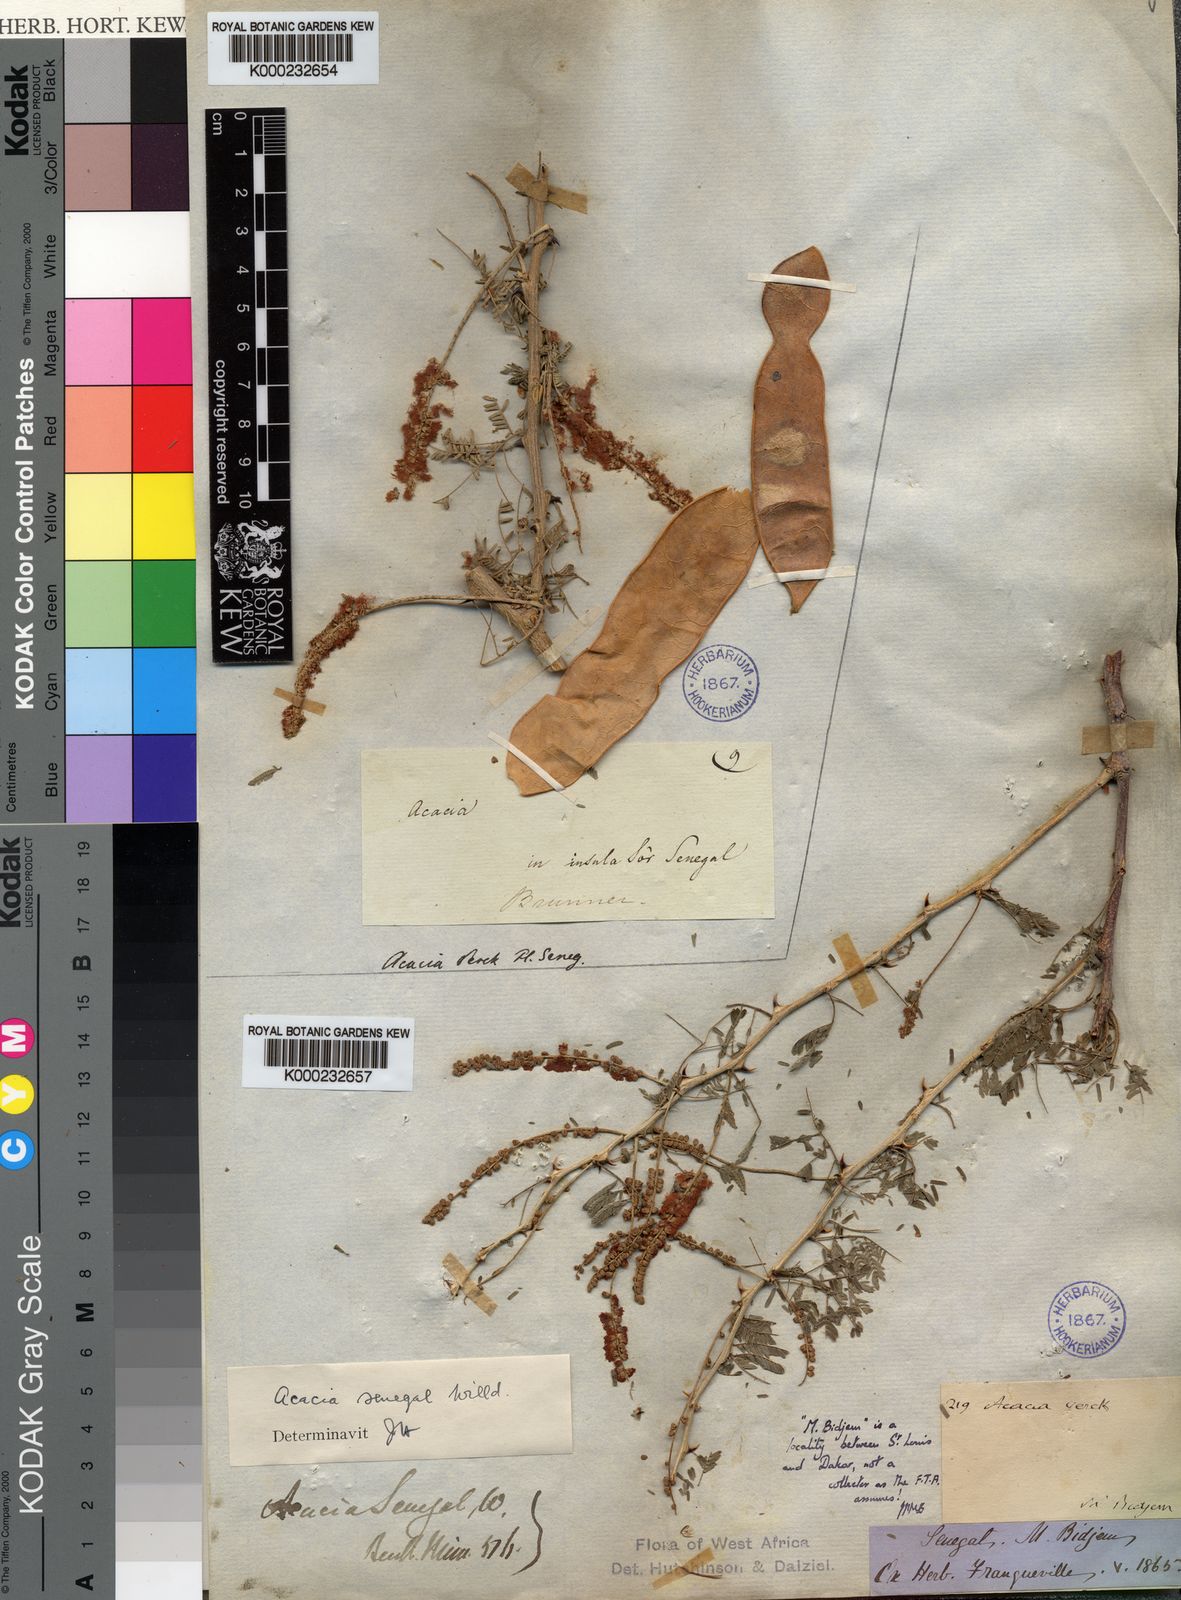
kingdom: Plantae
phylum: Tracheophyta
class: Magnoliopsida
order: Fabales
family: Fabaceae
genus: Senegalia
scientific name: Senegalia senegal
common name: Senegal-gum
